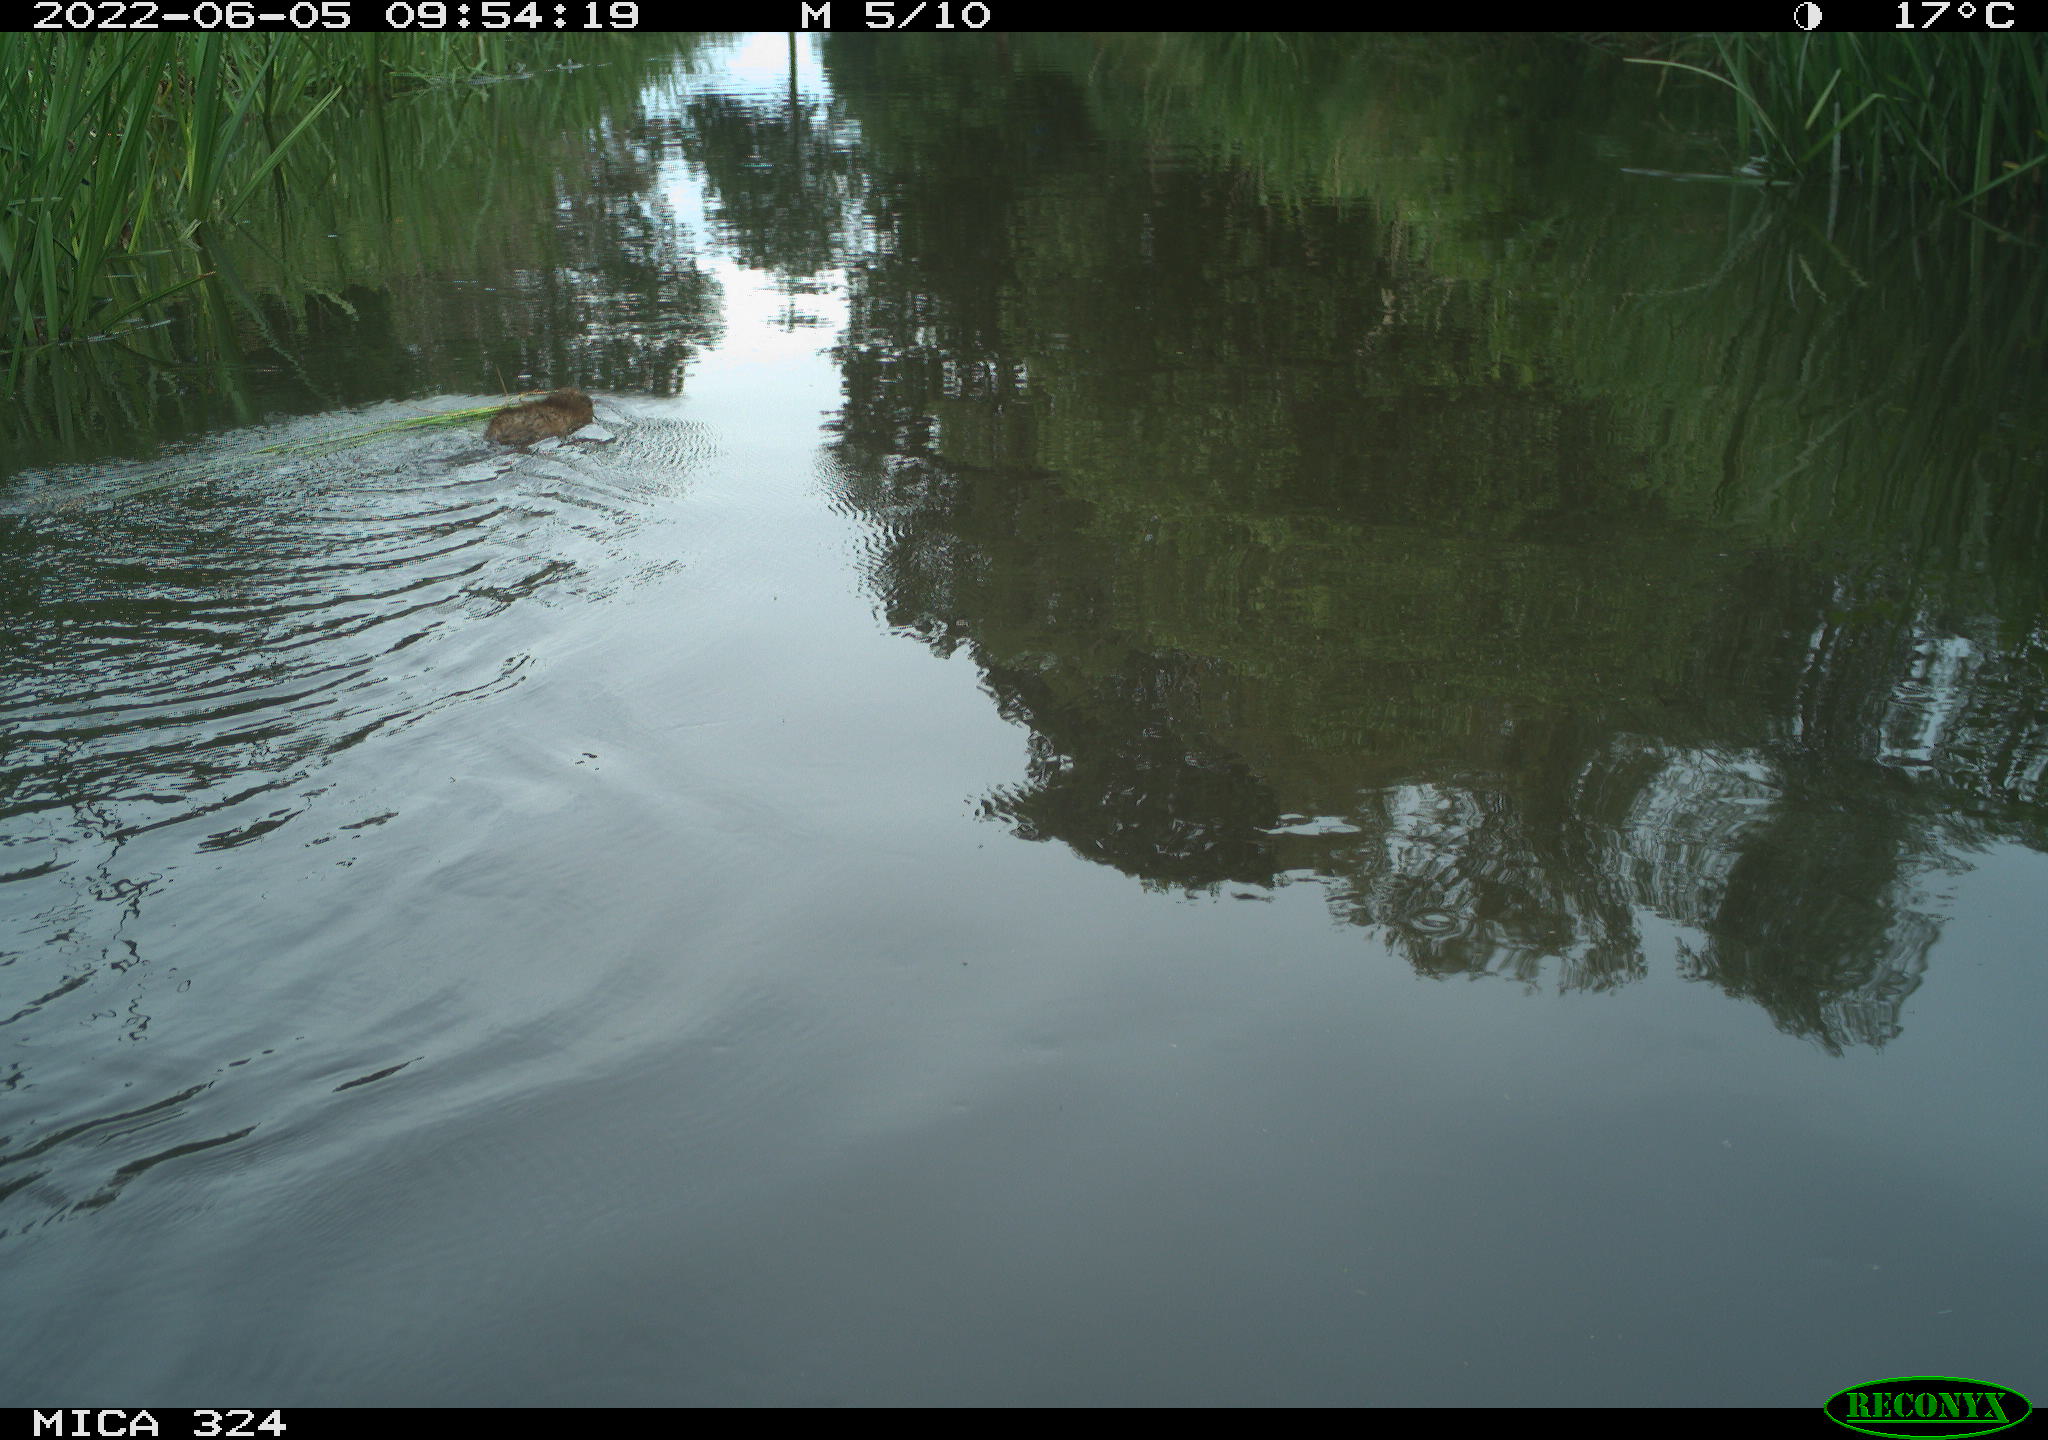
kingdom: Animalia
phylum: Chordata
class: Mammalia
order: Rodentia
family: Cricetidae
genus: Ondatra
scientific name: Ondatra zibethicus
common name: Muskrat
